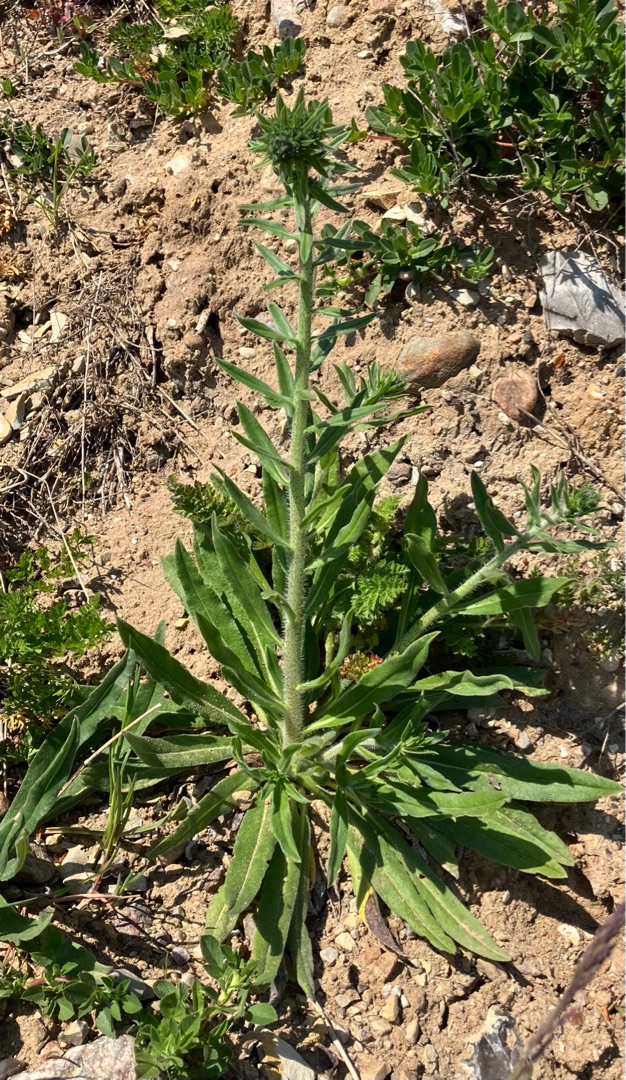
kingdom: Plantae
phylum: Tracheophyta
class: Magnoliopsida
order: Boraginales
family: Boraginaceae
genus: Echium
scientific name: Echium vulgare
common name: Slangehoved
